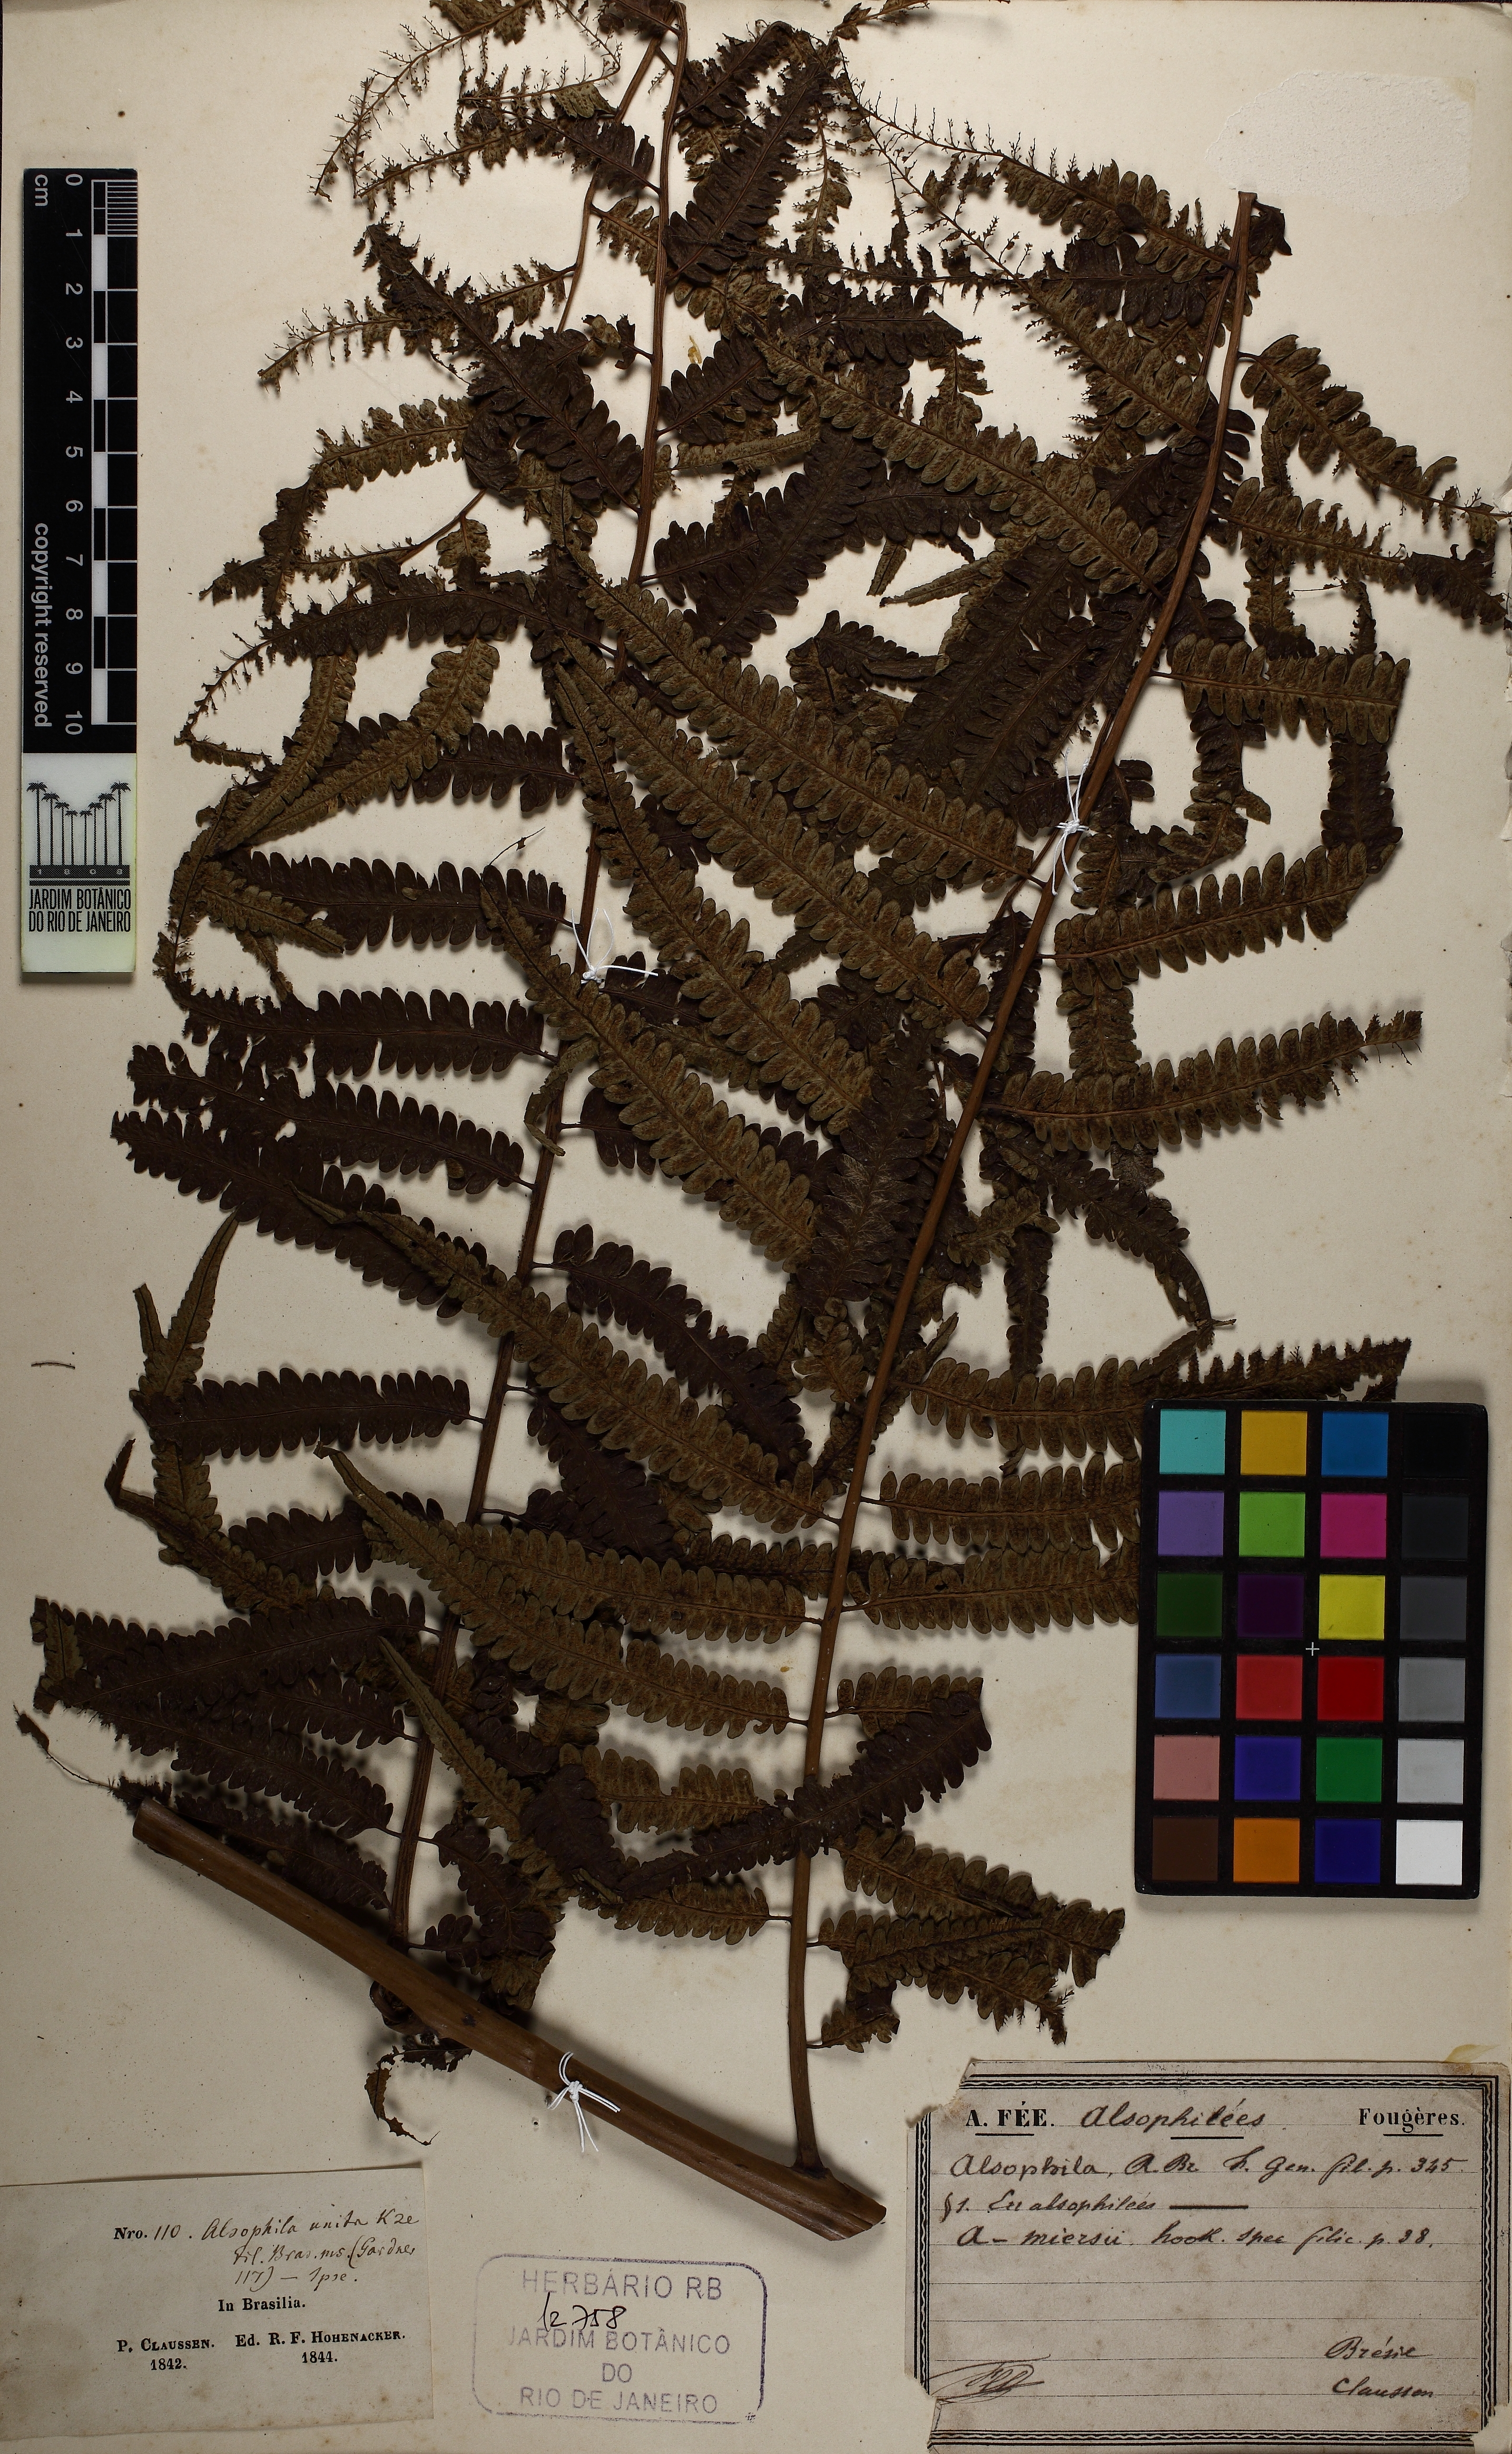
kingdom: Plantae
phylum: Tracheophyta
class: Polypodiopsida
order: Cyatheales
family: Cyatheaceae
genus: Cyathea
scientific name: Cyathea corcovadensis
